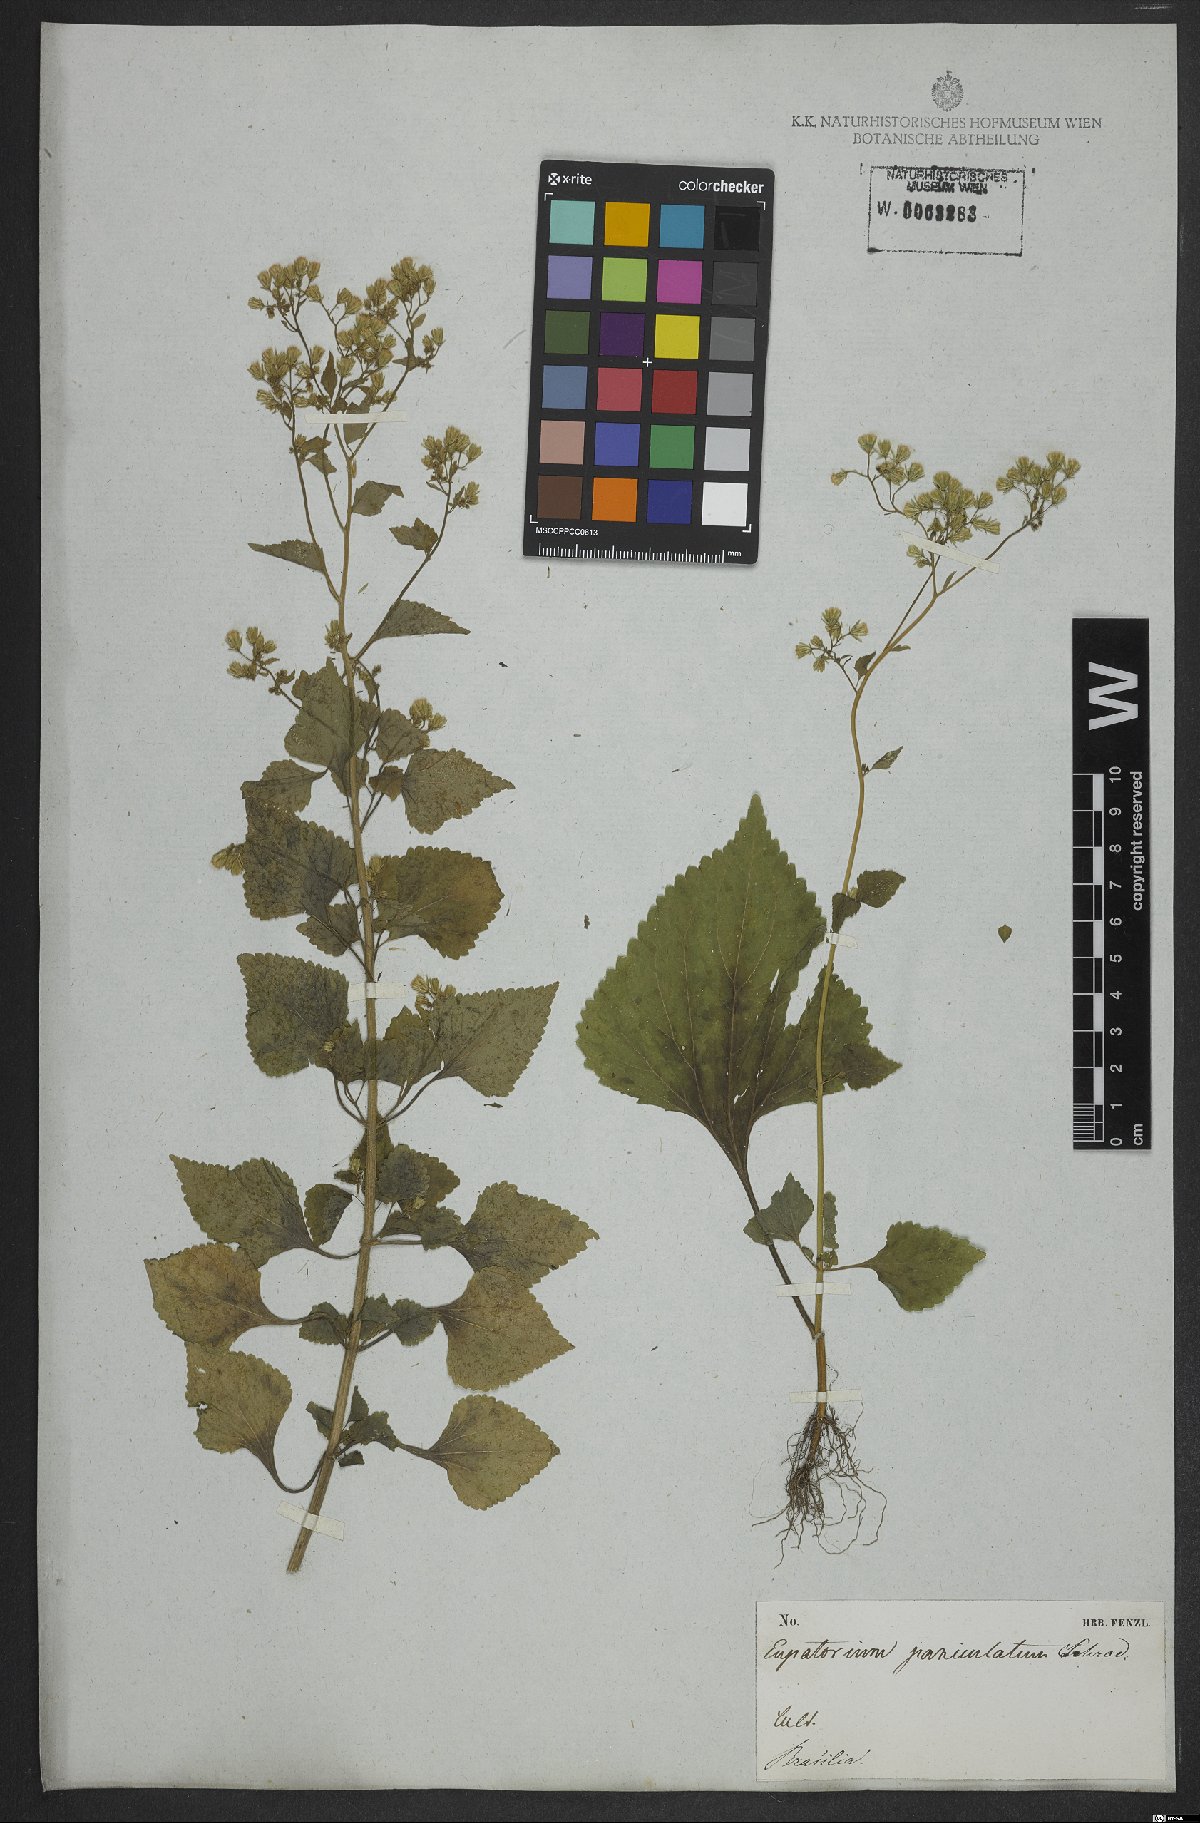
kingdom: Plantae
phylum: Tracheophyta
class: Magnoliopsida
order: Asterales
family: Asteraceae
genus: Fleischmannia
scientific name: Fleischmannia microstemon
